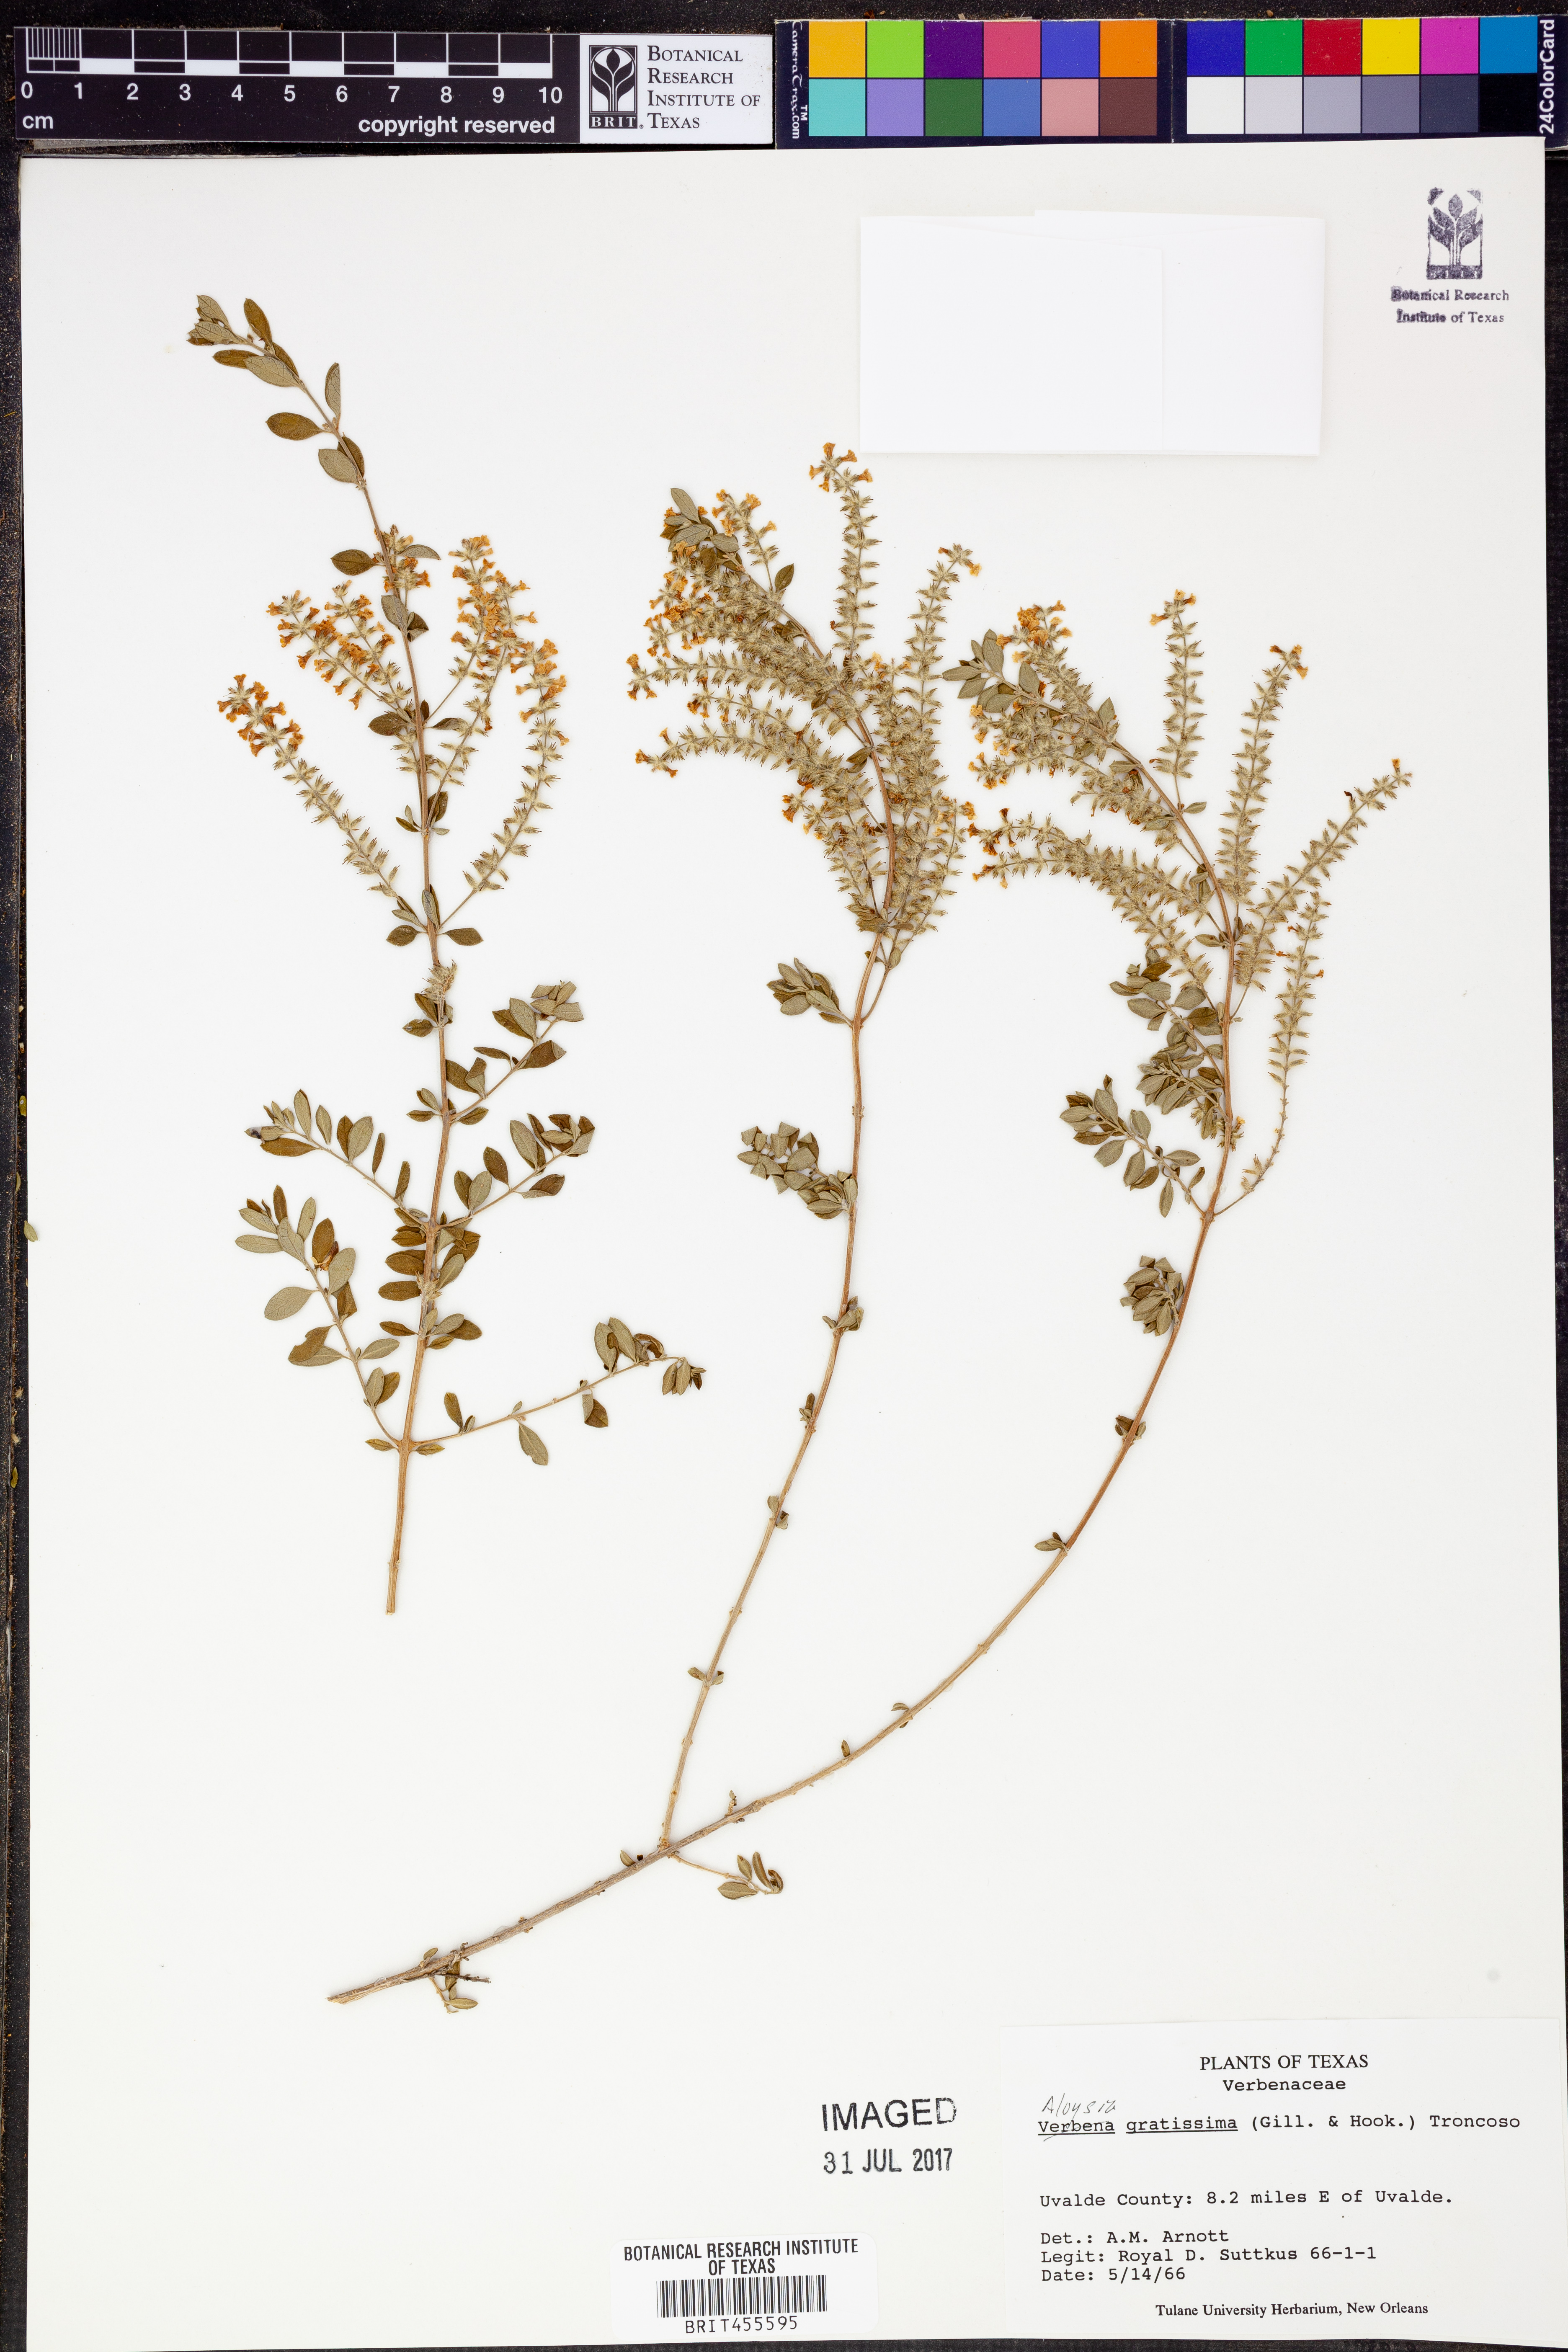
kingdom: Plantae
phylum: Tracheophyta
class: Magnoliopsida
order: Lamiales
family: Verbenaceae
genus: Aloysia
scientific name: Aloysia gratissima
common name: Common bee-brush
